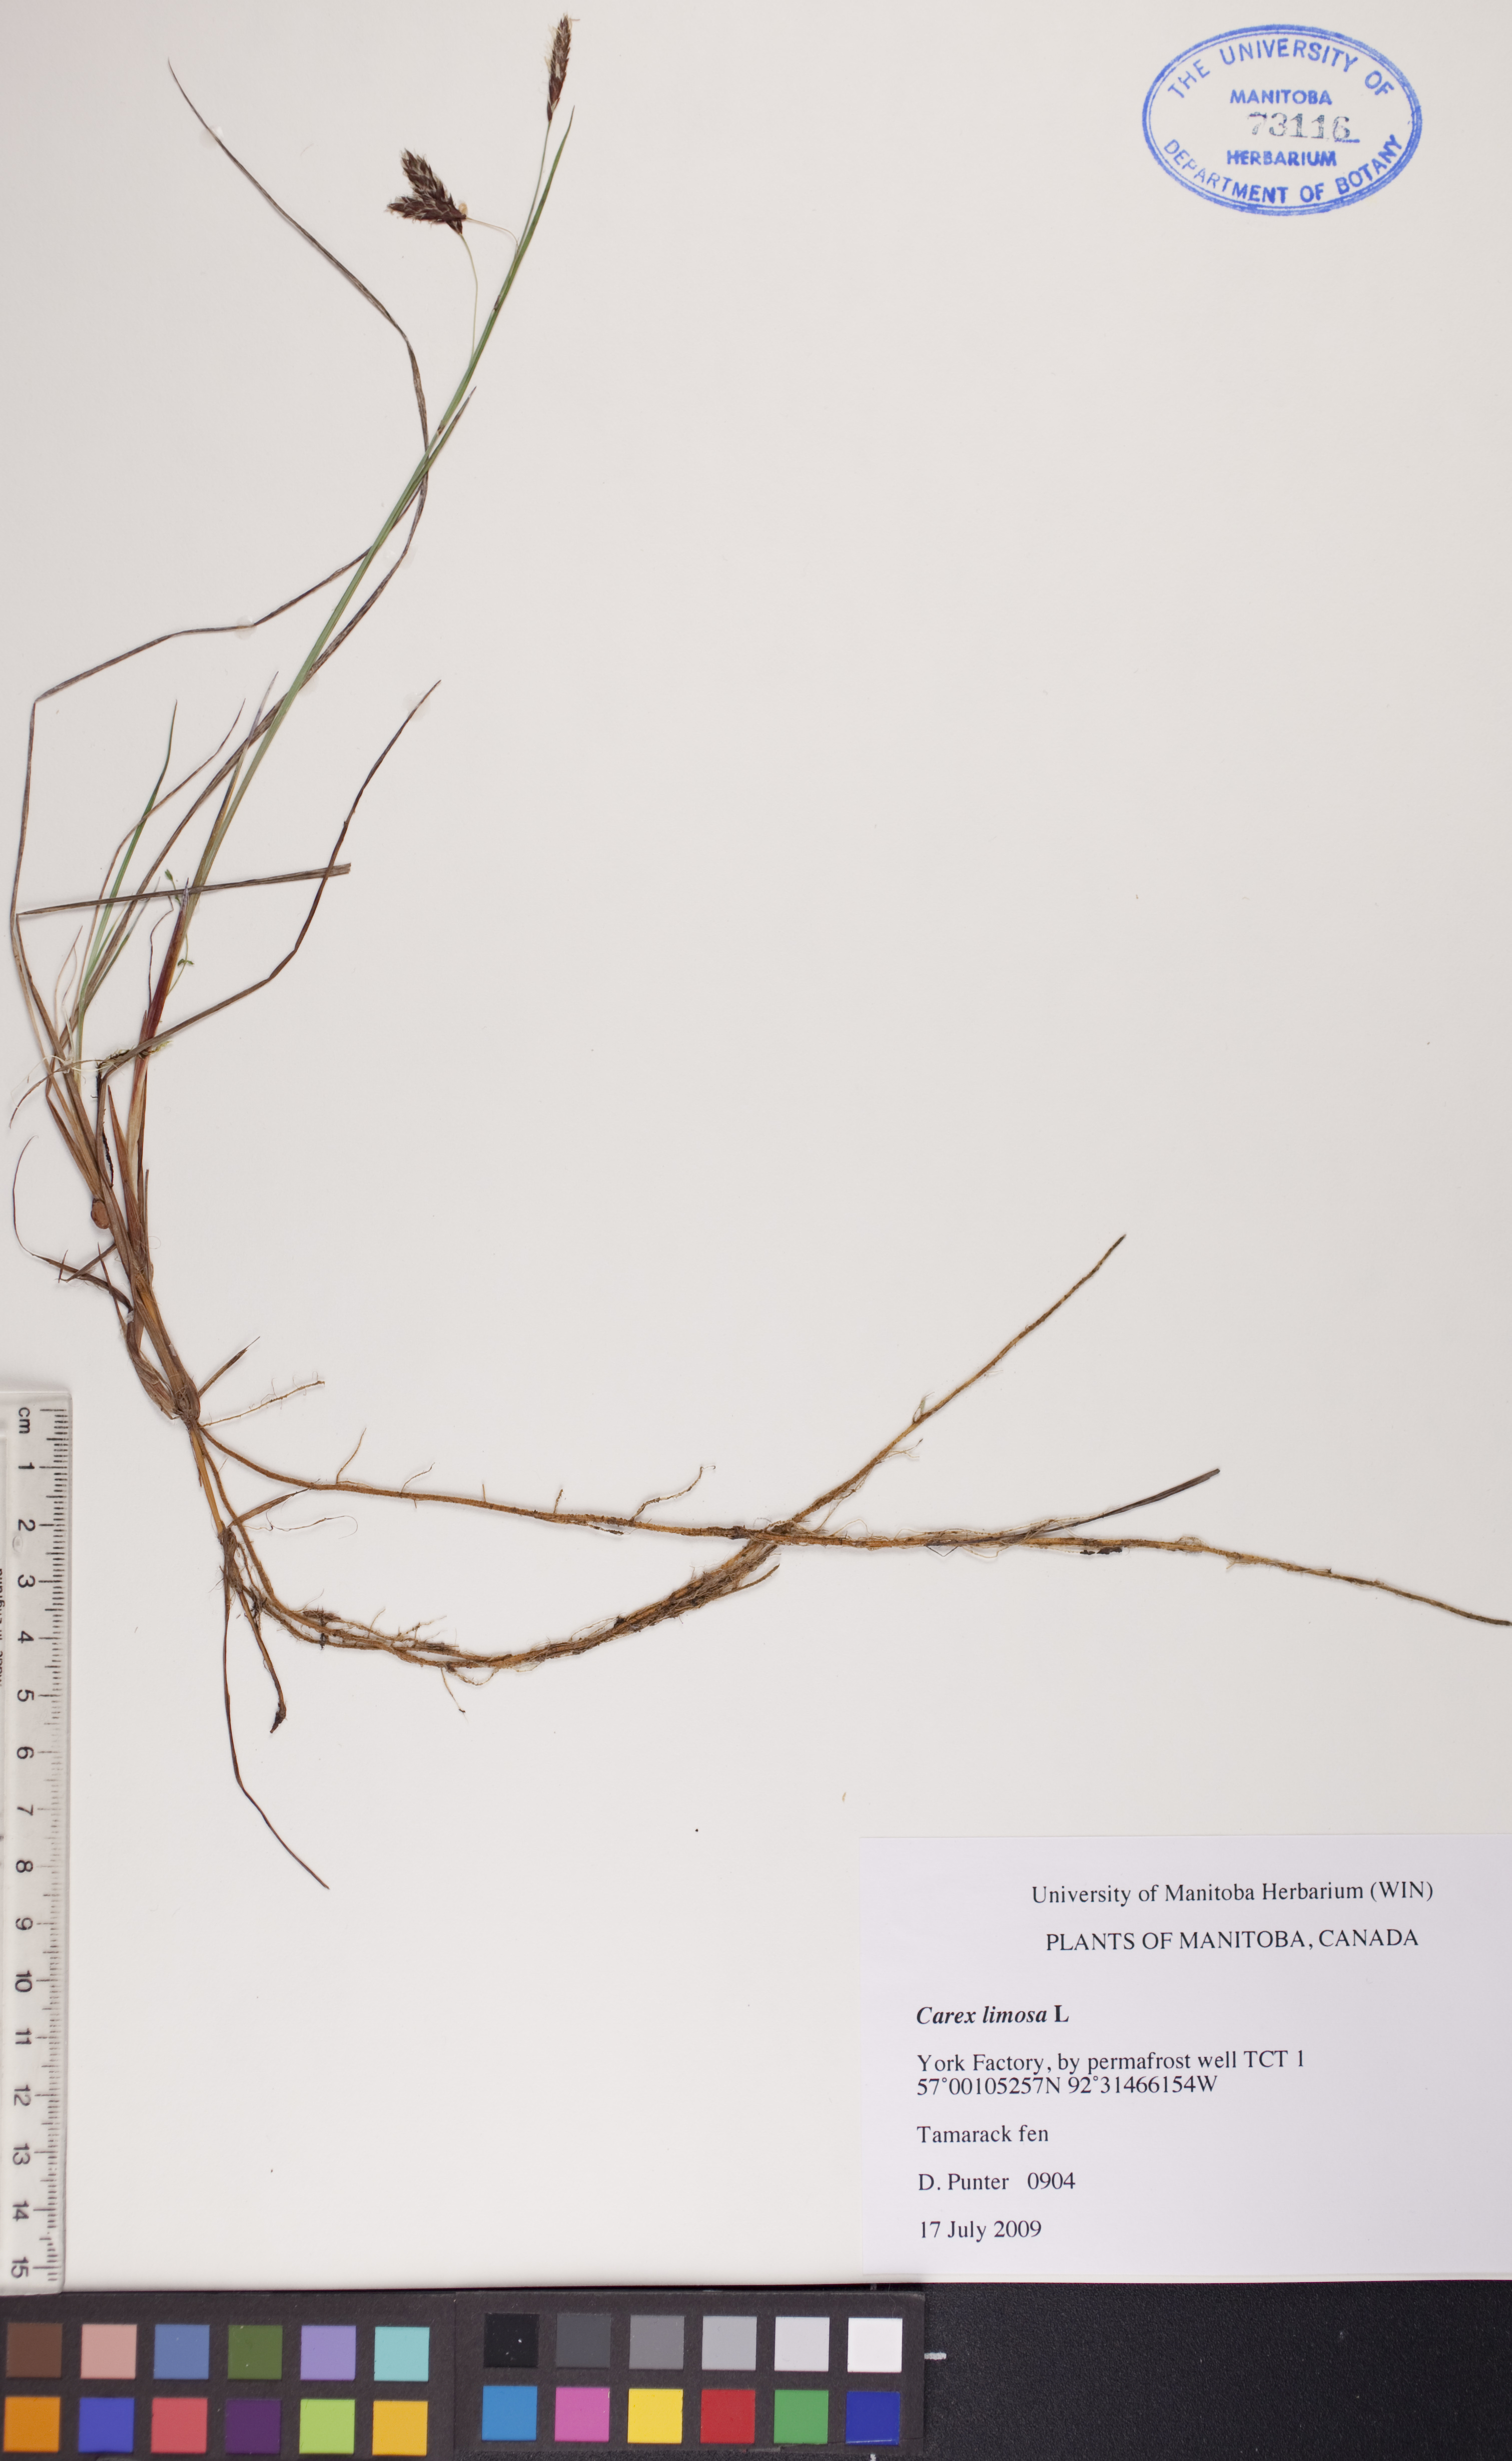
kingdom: Plantae
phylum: Tracheophyta
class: Liliopsida
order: Poales
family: Cyperaceae
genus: Carex
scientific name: Carex limosa
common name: Bog sedge
